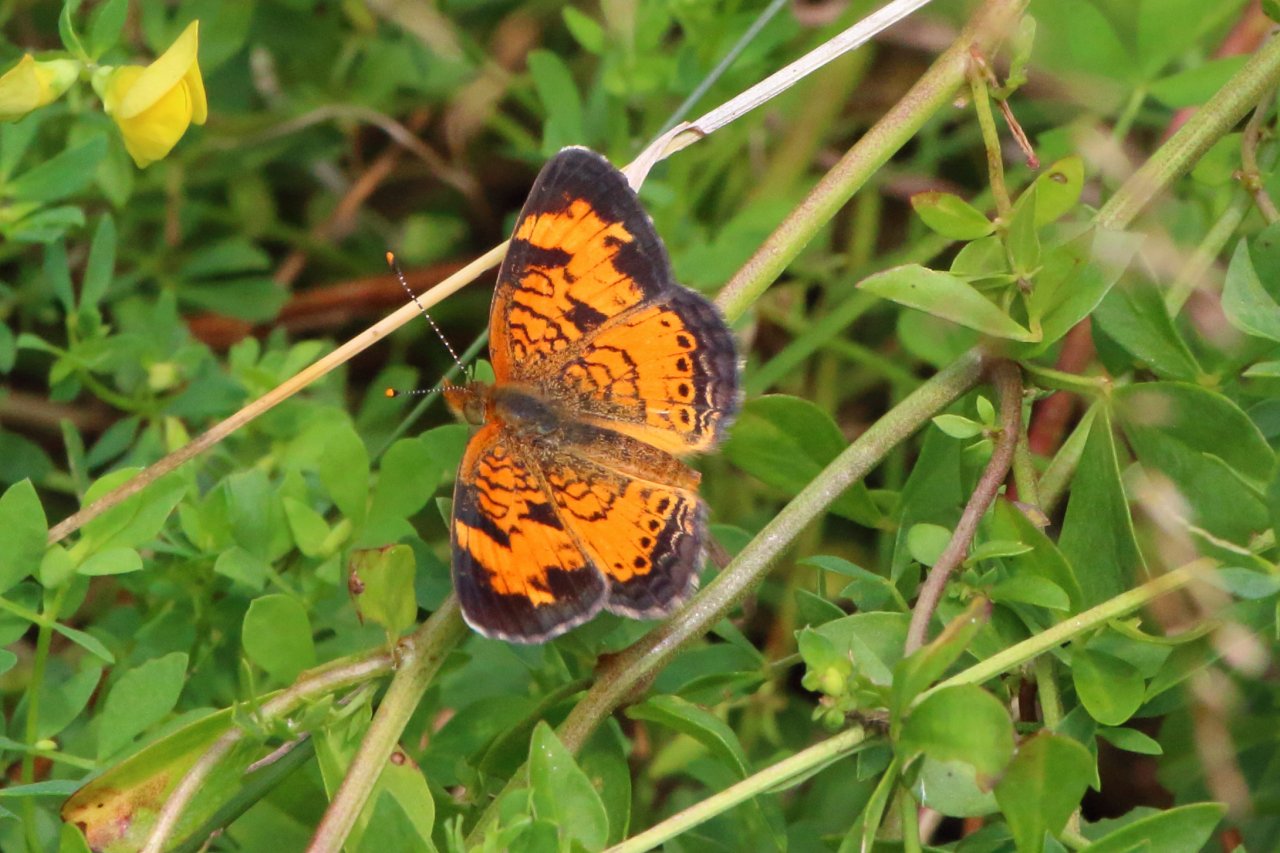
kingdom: Animalia
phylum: Arthropoda
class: Insecta
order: Lepidoptera
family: Nymphalidae
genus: Phyciodes
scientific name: Phyciodes tharos
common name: Northern Crescent
